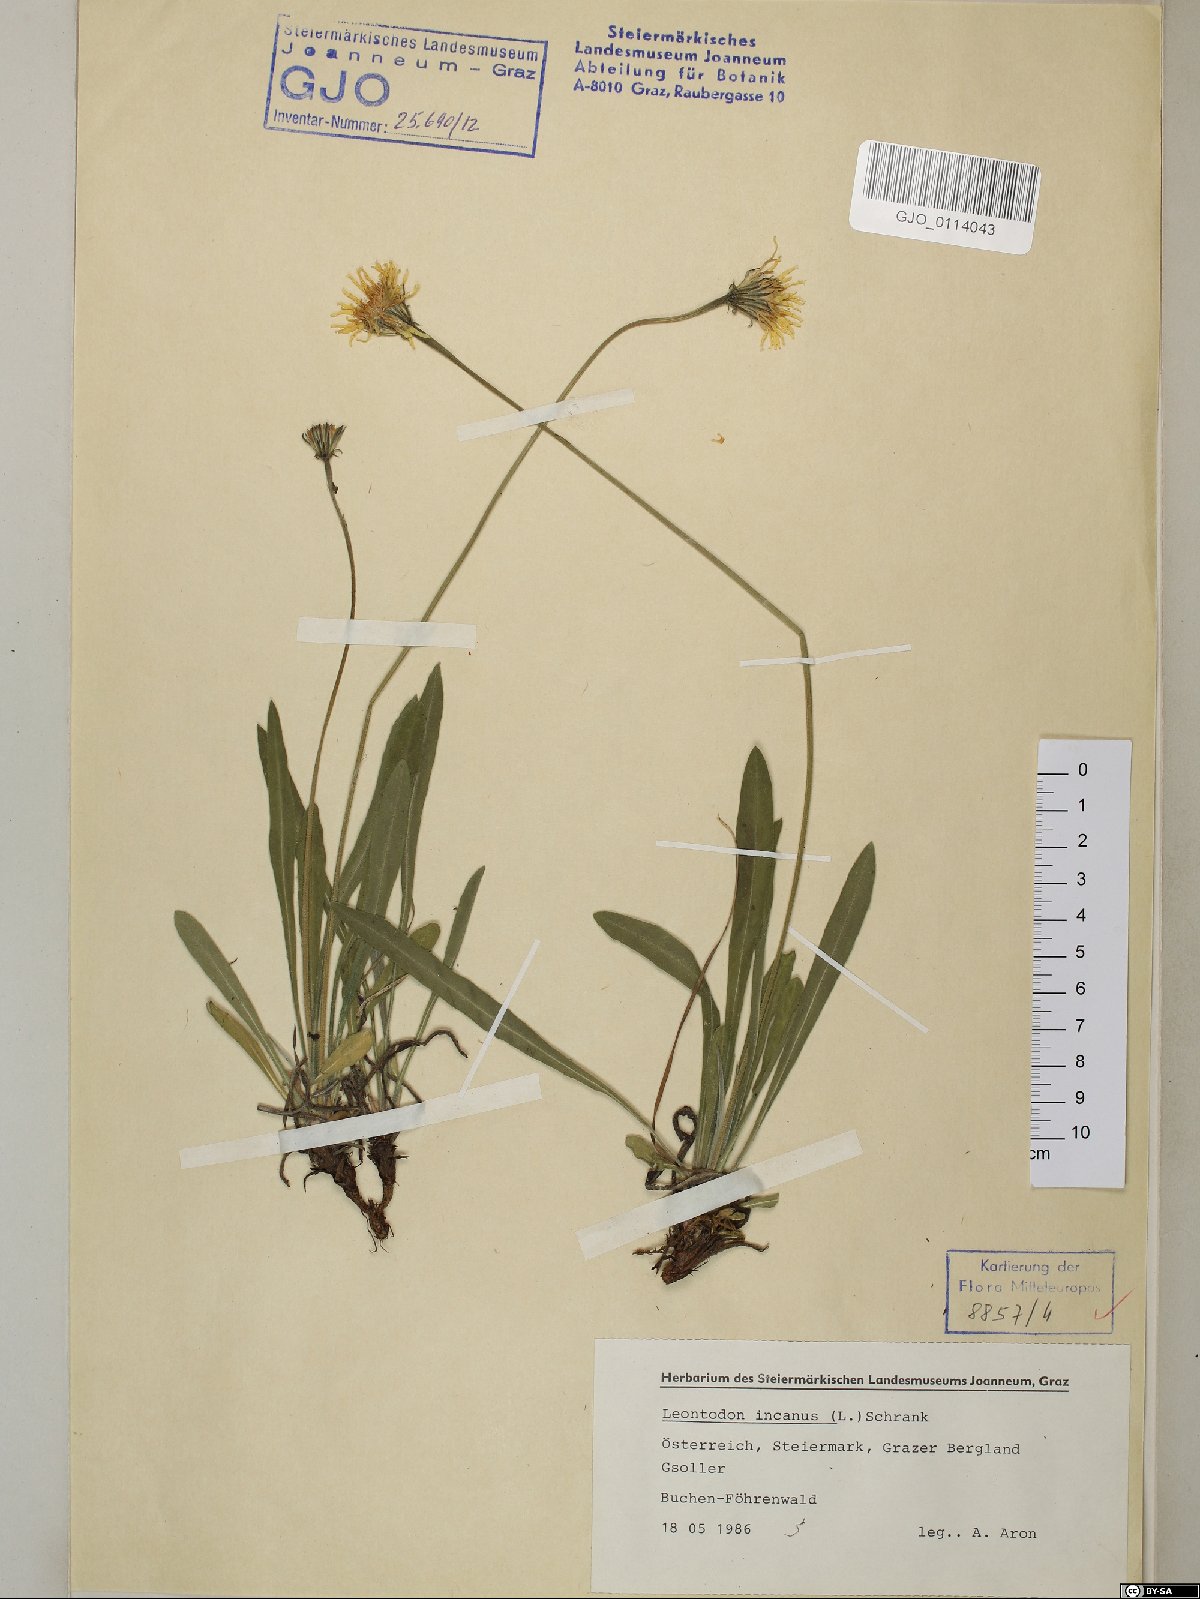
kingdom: Plantae
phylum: Tracheophyta
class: Magnoliopsida
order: Asterales
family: Asteraceae
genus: Leontodon
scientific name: Leontodon incanus
